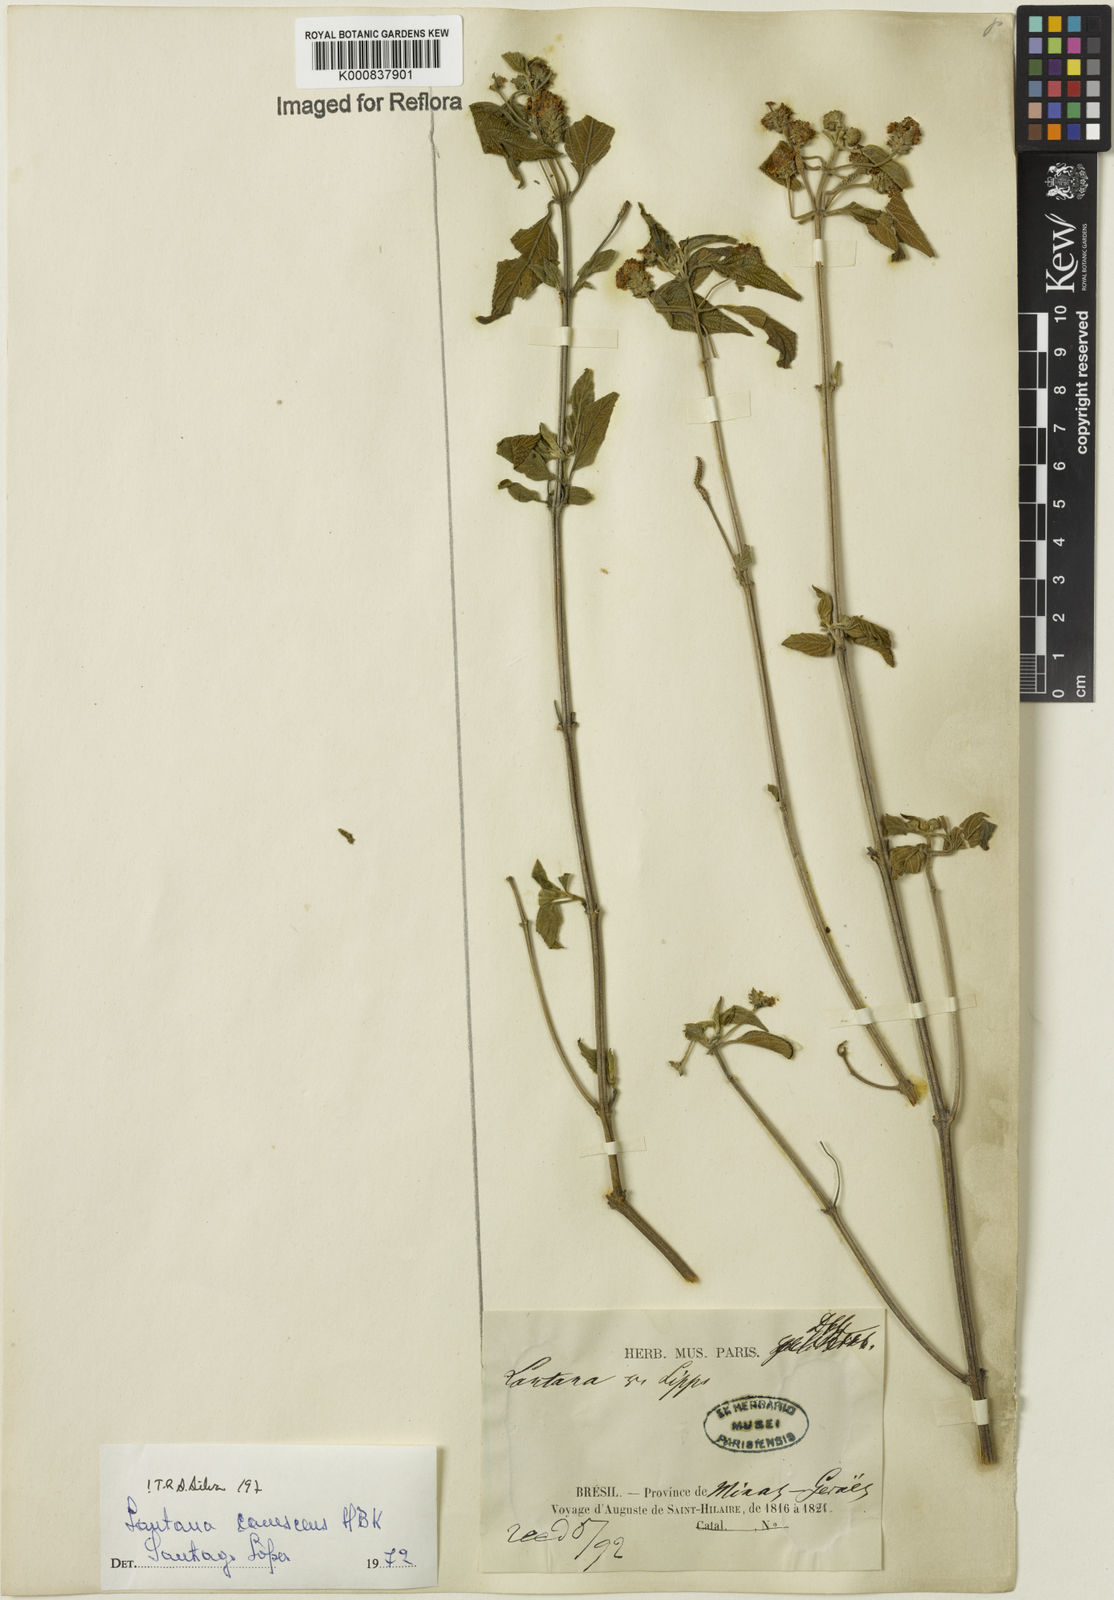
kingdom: Plantae
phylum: Tracheophyta
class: Magnoliopsida
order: Lamiales
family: Verbenaceae
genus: Lantana
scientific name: Lantana canescens
